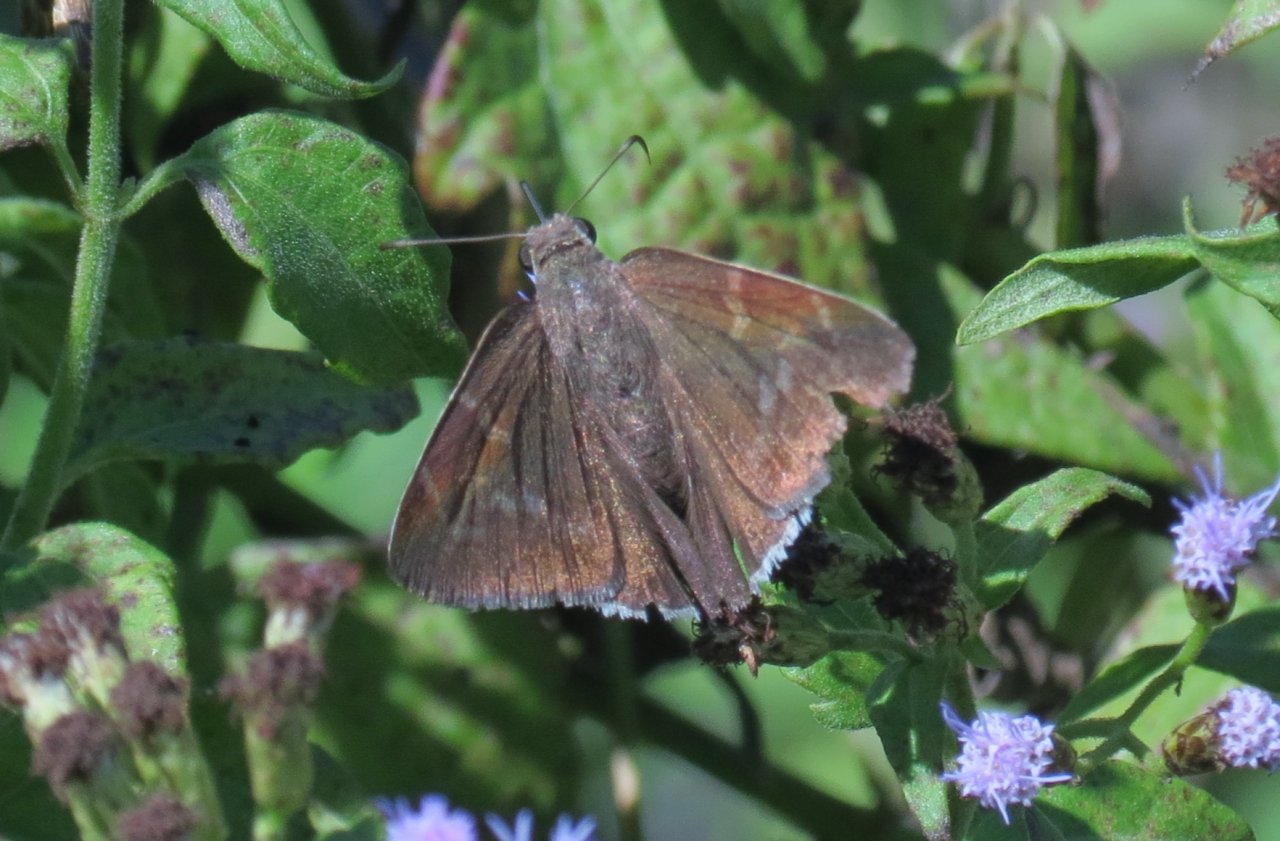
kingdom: Animalia
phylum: Arthropoda
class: Insecta
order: Lepidoptera
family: Hesperiidae
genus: Achalarus
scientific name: Achalarus toxeus
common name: Coyote Cloudywing
